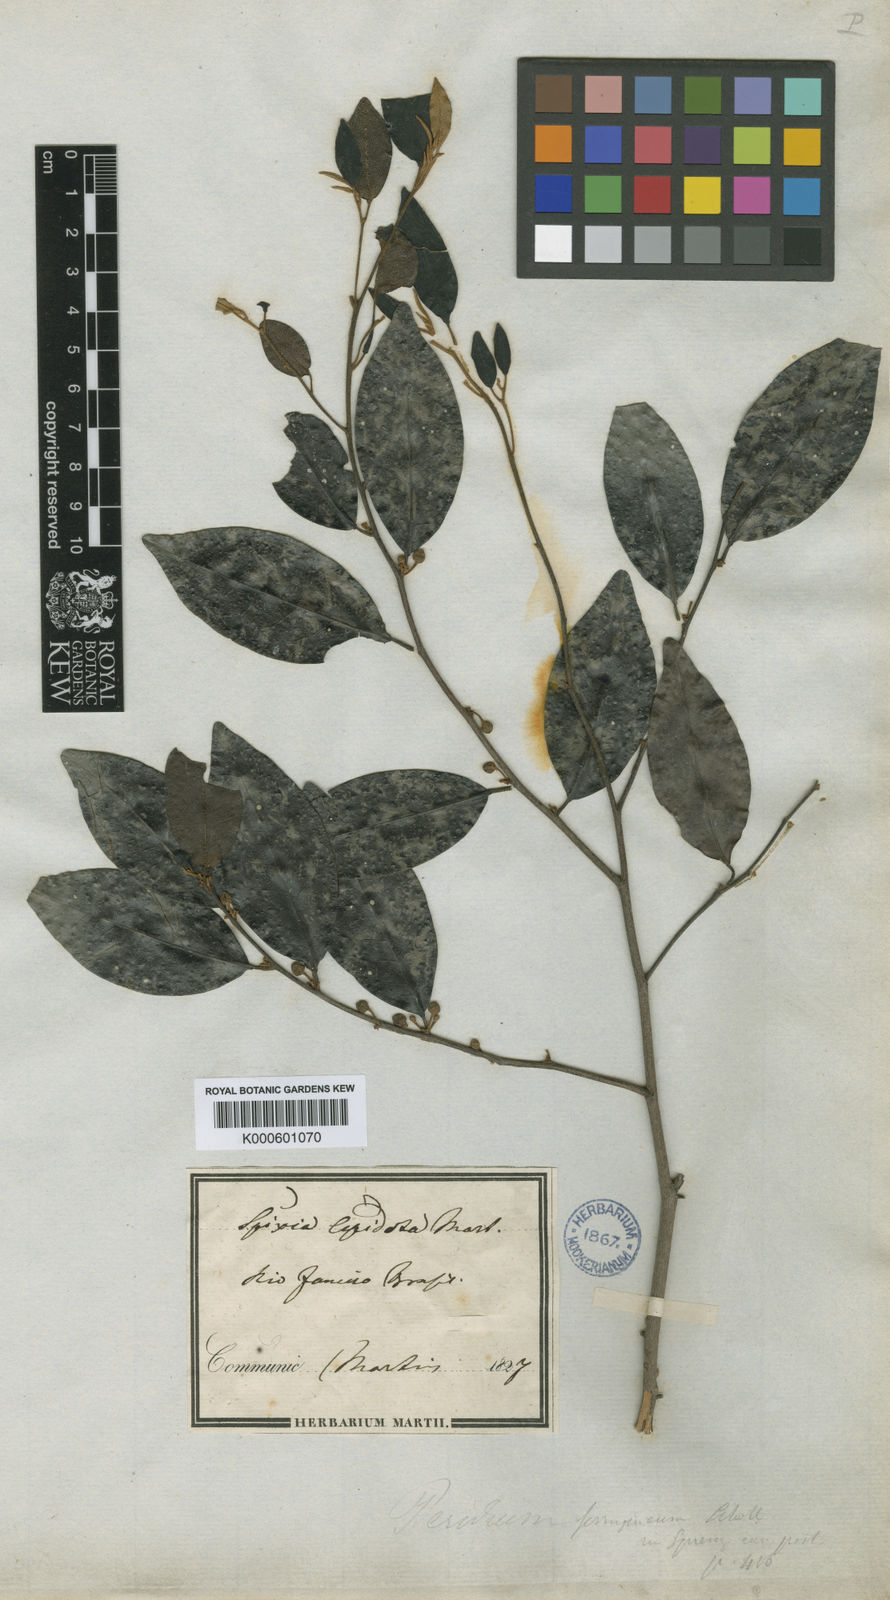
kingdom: Plantae
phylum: Tracheophyta
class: Magnoliopsida
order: Malpighiales
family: Peraceae
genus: Pera
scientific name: Pera
